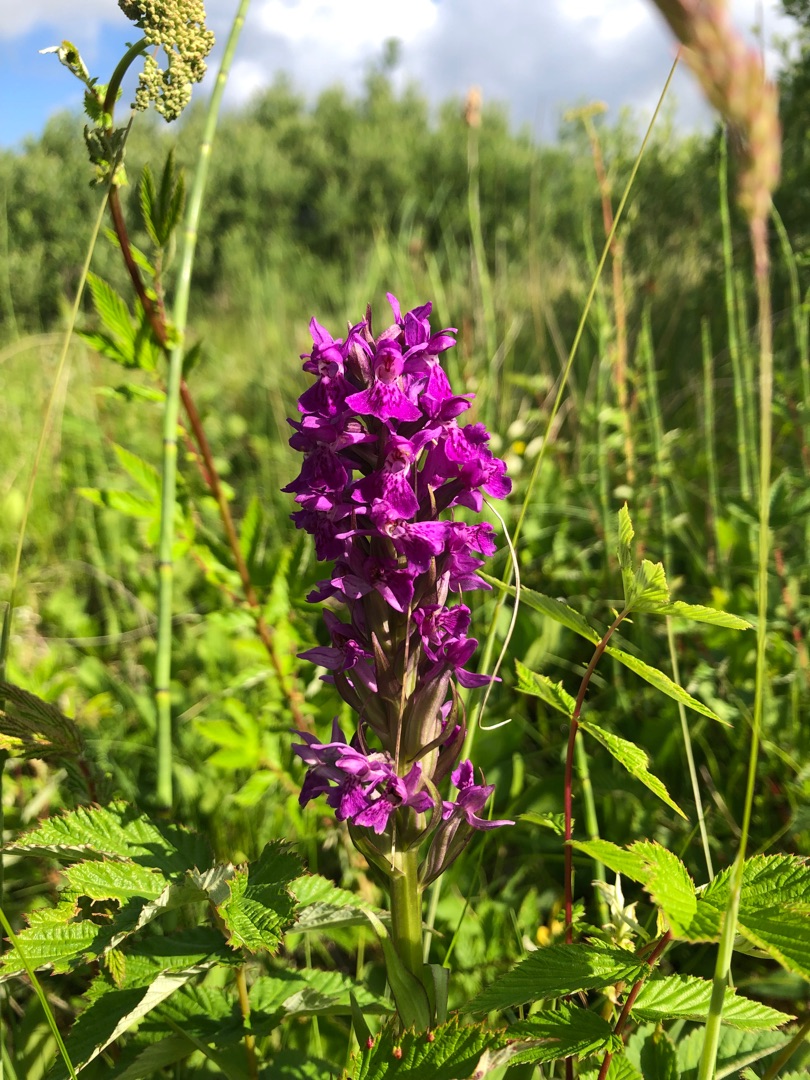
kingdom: Plantae
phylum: Tracheophyta
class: Liliopsida
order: Asparagales
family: Orchidaceae
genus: Dactylorhiza
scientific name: Dactylorhiza majalis
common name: Purpur-gøgeurt
